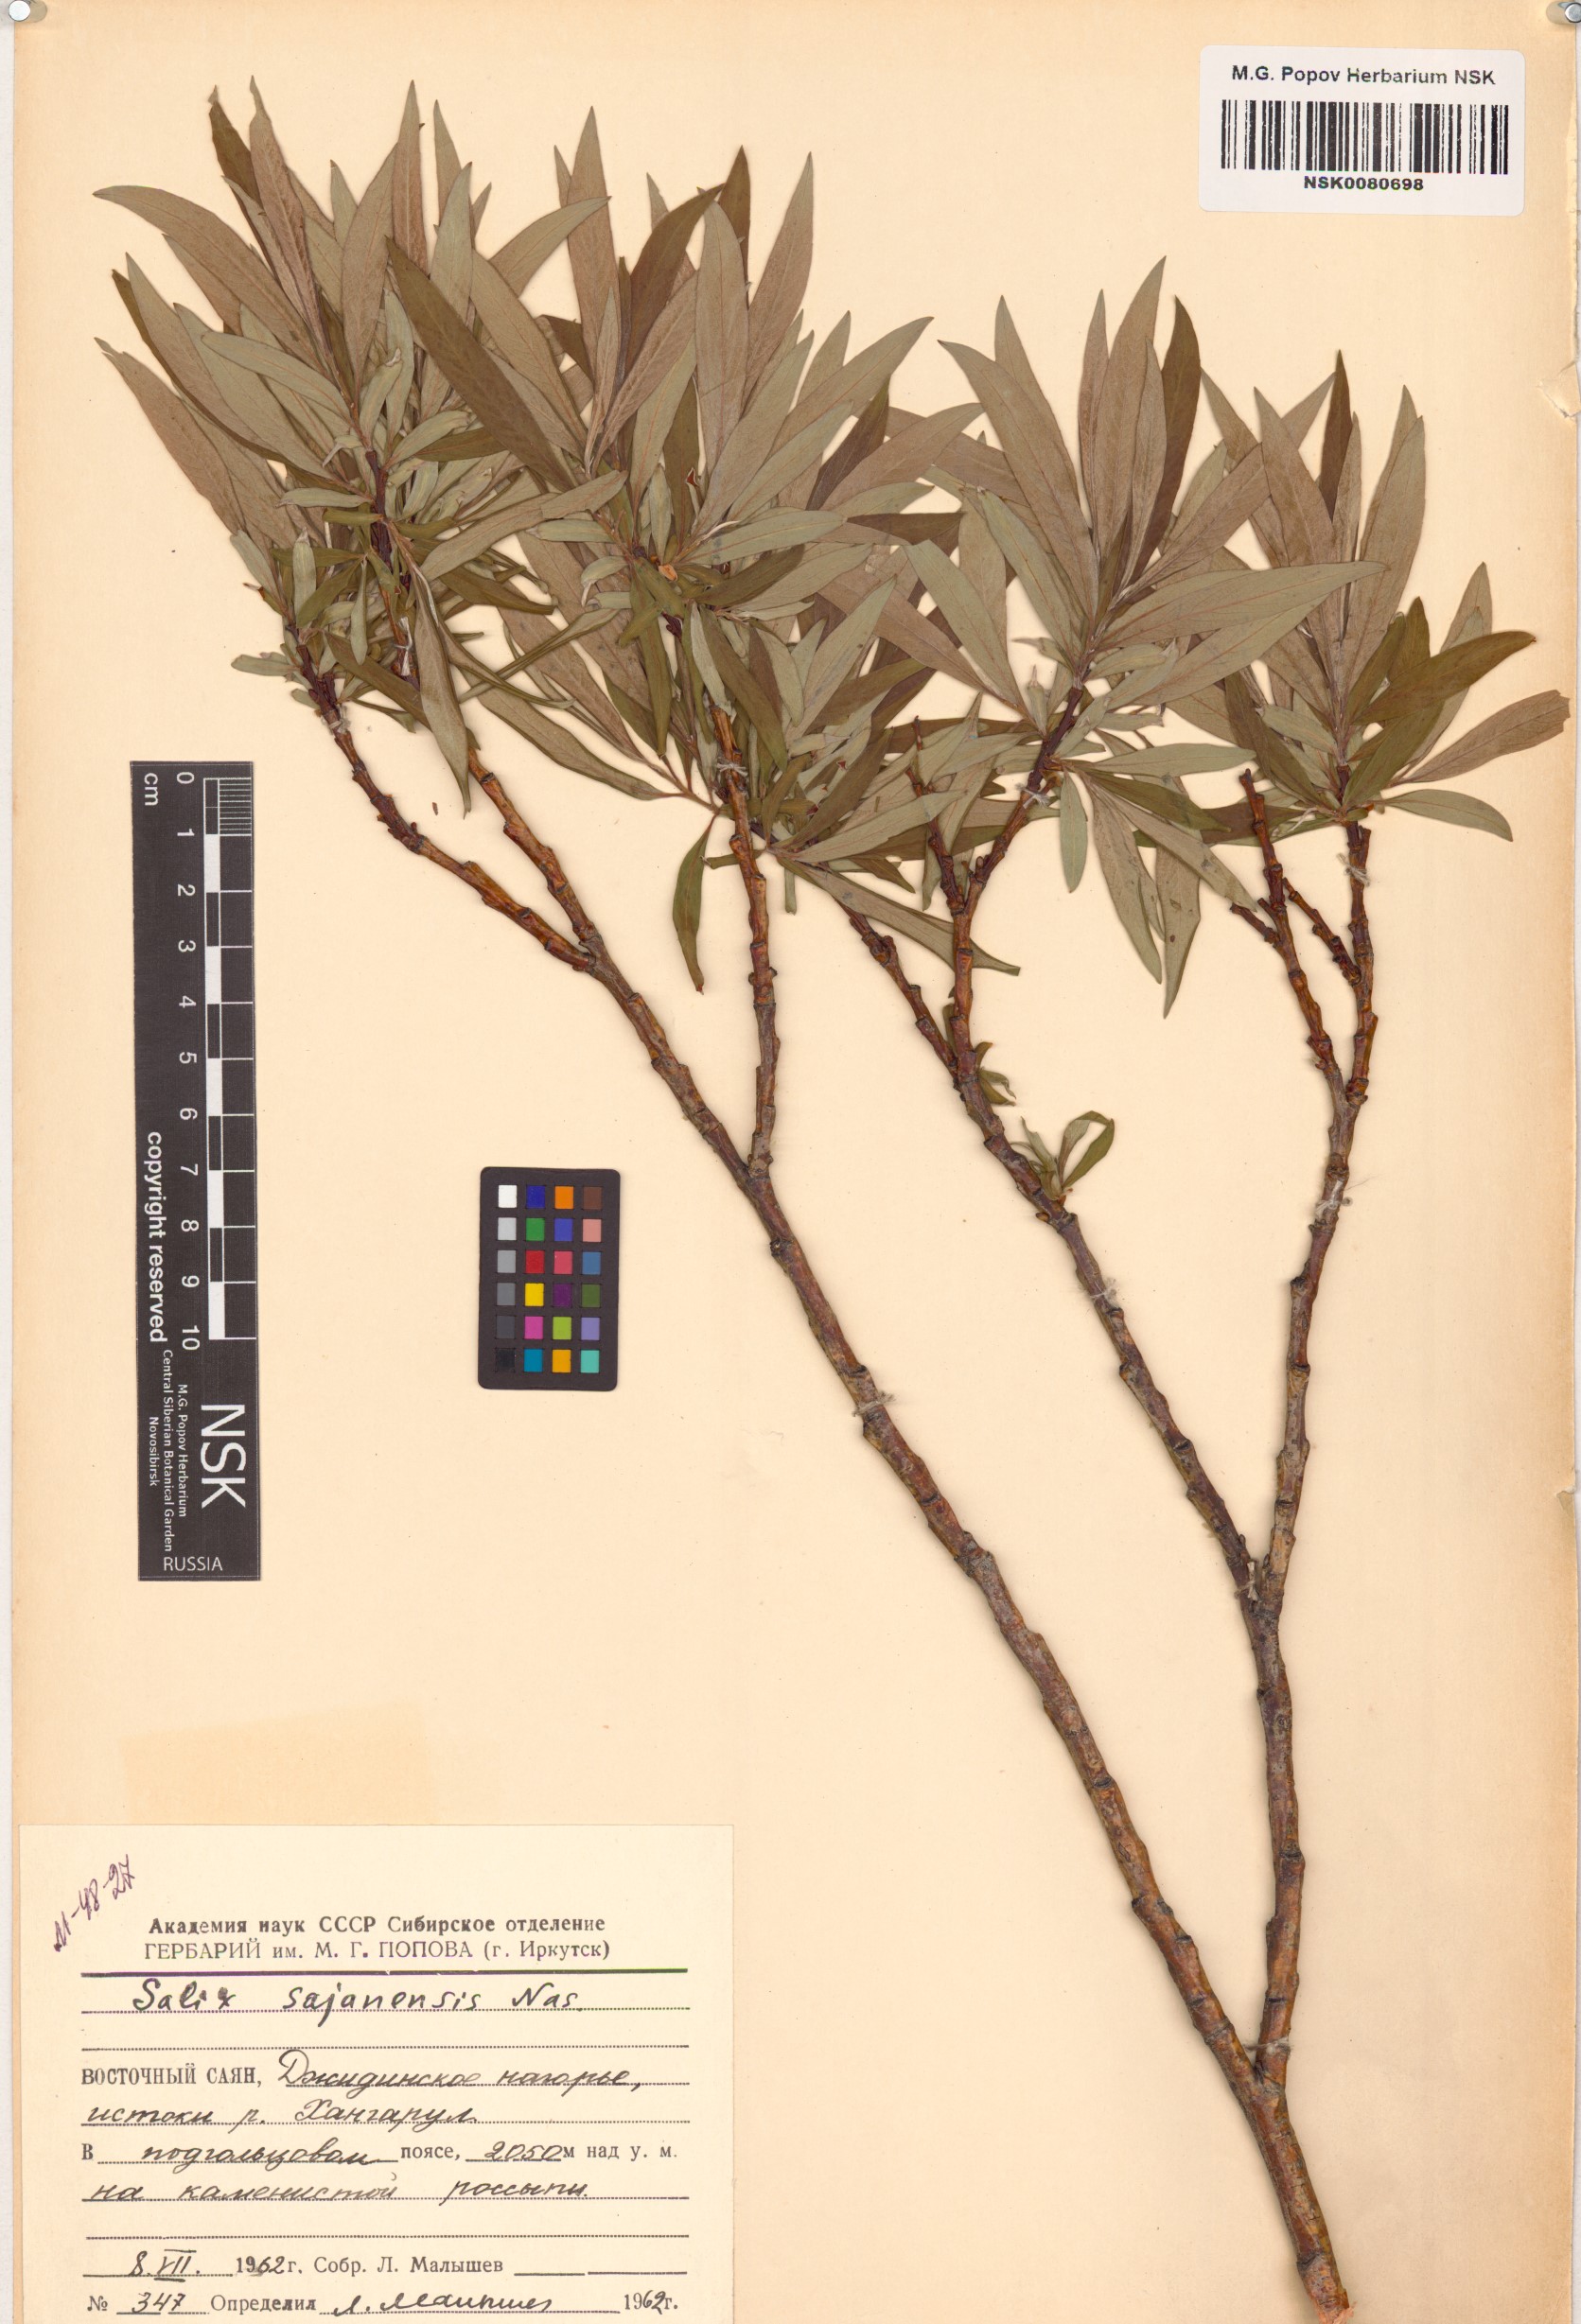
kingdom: Plantae
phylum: Tracheophyta
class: Magnoliopsida
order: Malpighiales
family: Salicaceae
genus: Salix
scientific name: Salix sajanensis
